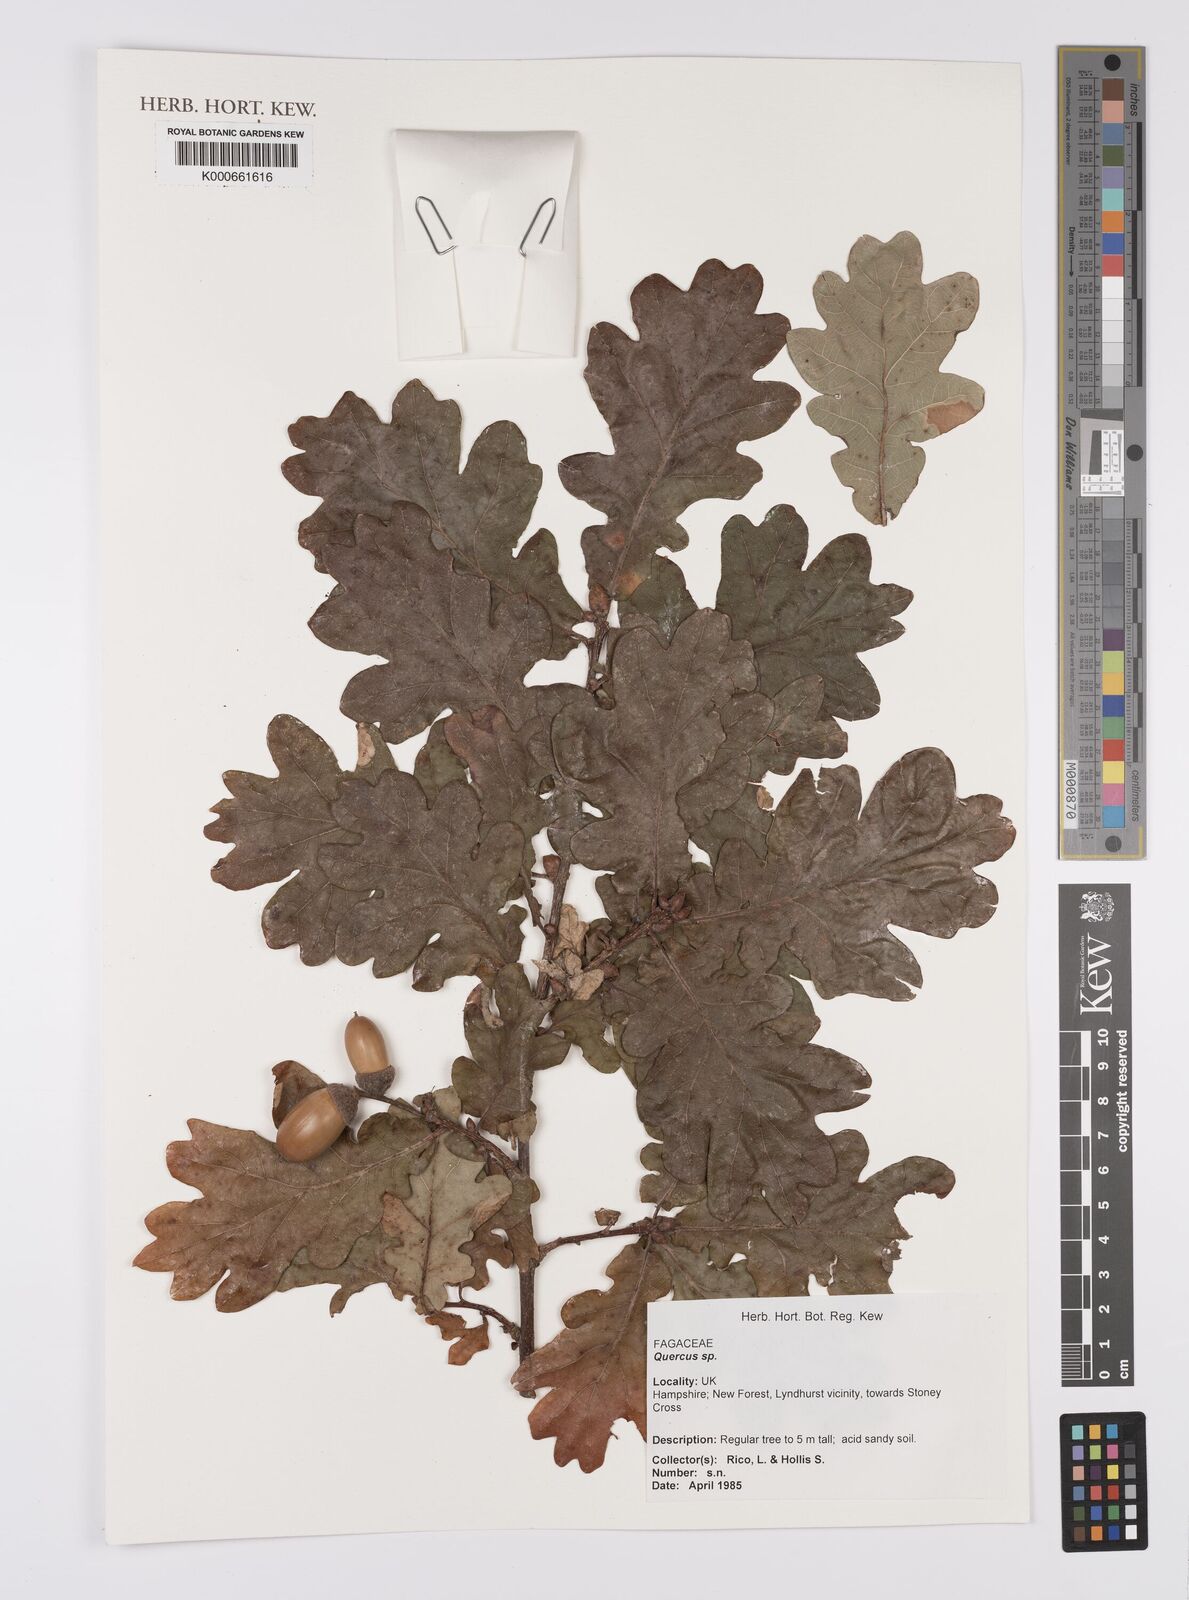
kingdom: Plantae
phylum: Tracheophyta
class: Magnoliopsida
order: Fagales
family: Fagaceae
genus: Quercus
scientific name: Quercus
